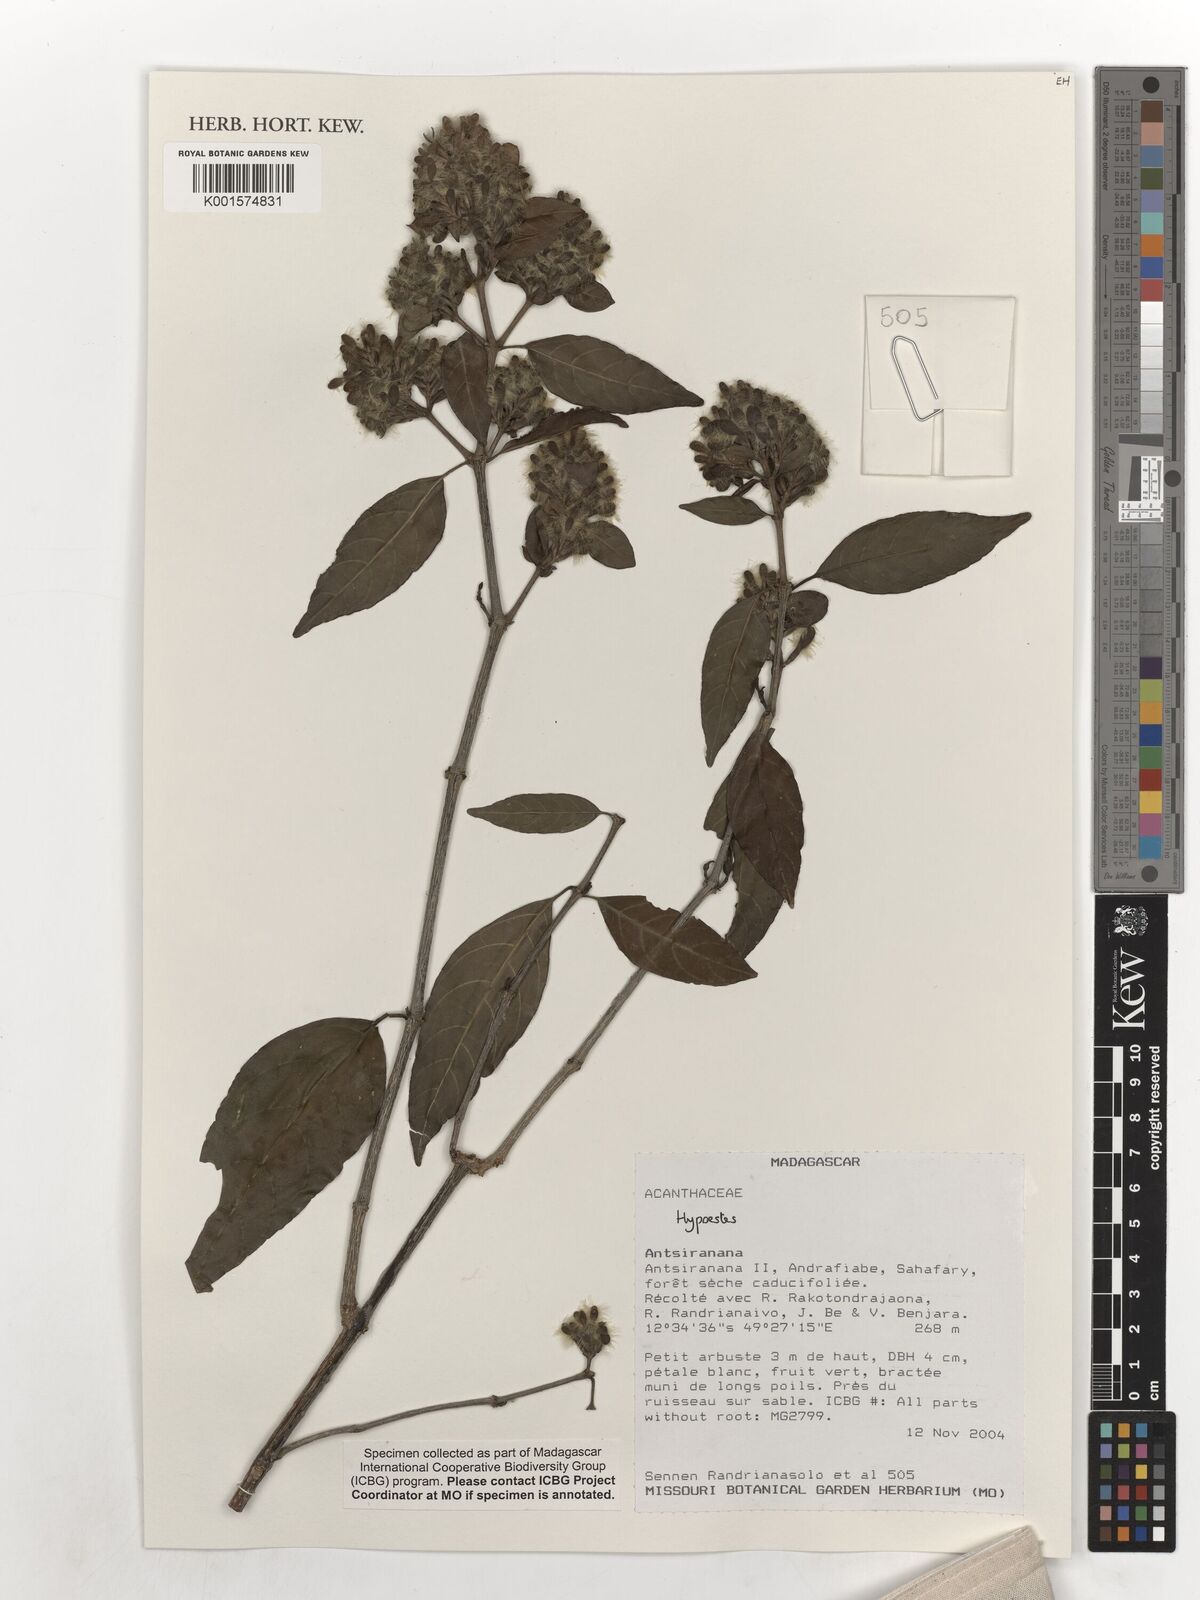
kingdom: Plantae
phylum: Tracheophyta
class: Magnoliopsida
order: Lamiales
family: Acanthaceae
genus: Hypoestes
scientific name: Hypoestes
